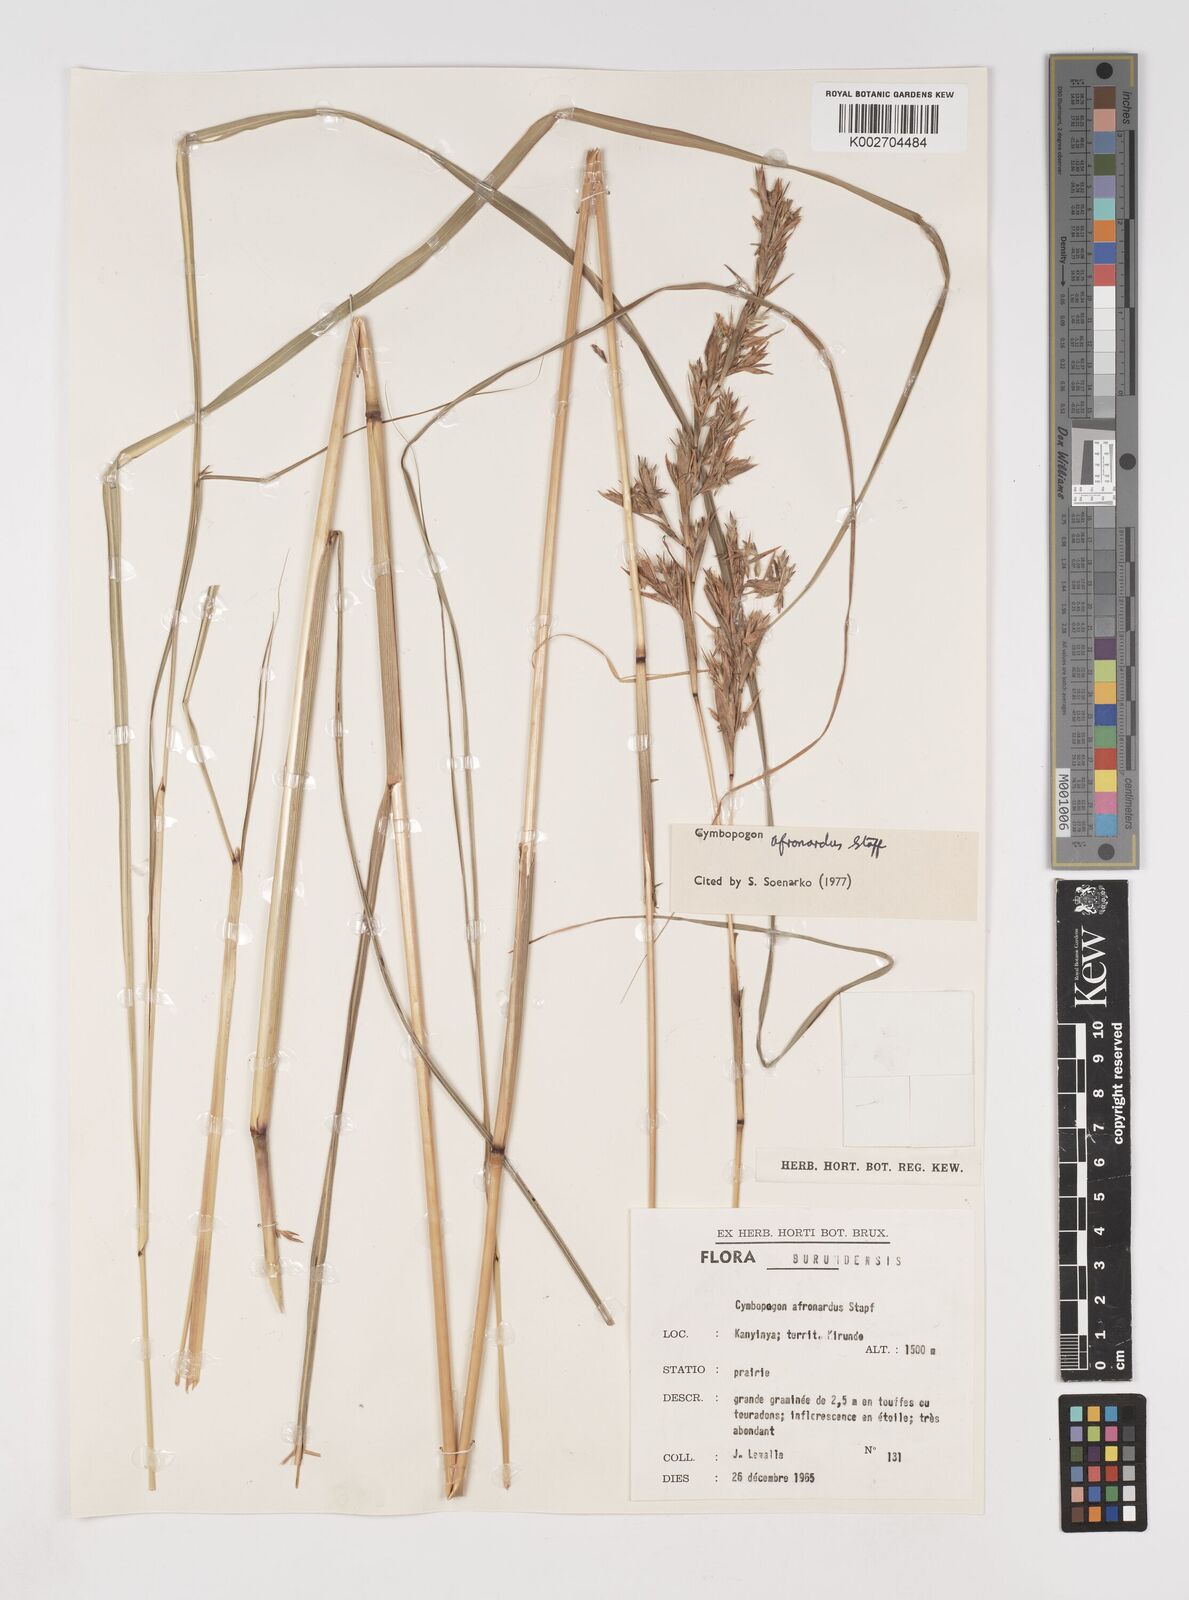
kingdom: Plantae
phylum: Tracheophyta
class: Liliopsida
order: Poales
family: Poaceae
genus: Cymbopogon
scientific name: Cymbopogon nardus
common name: Giant turpentine grass
